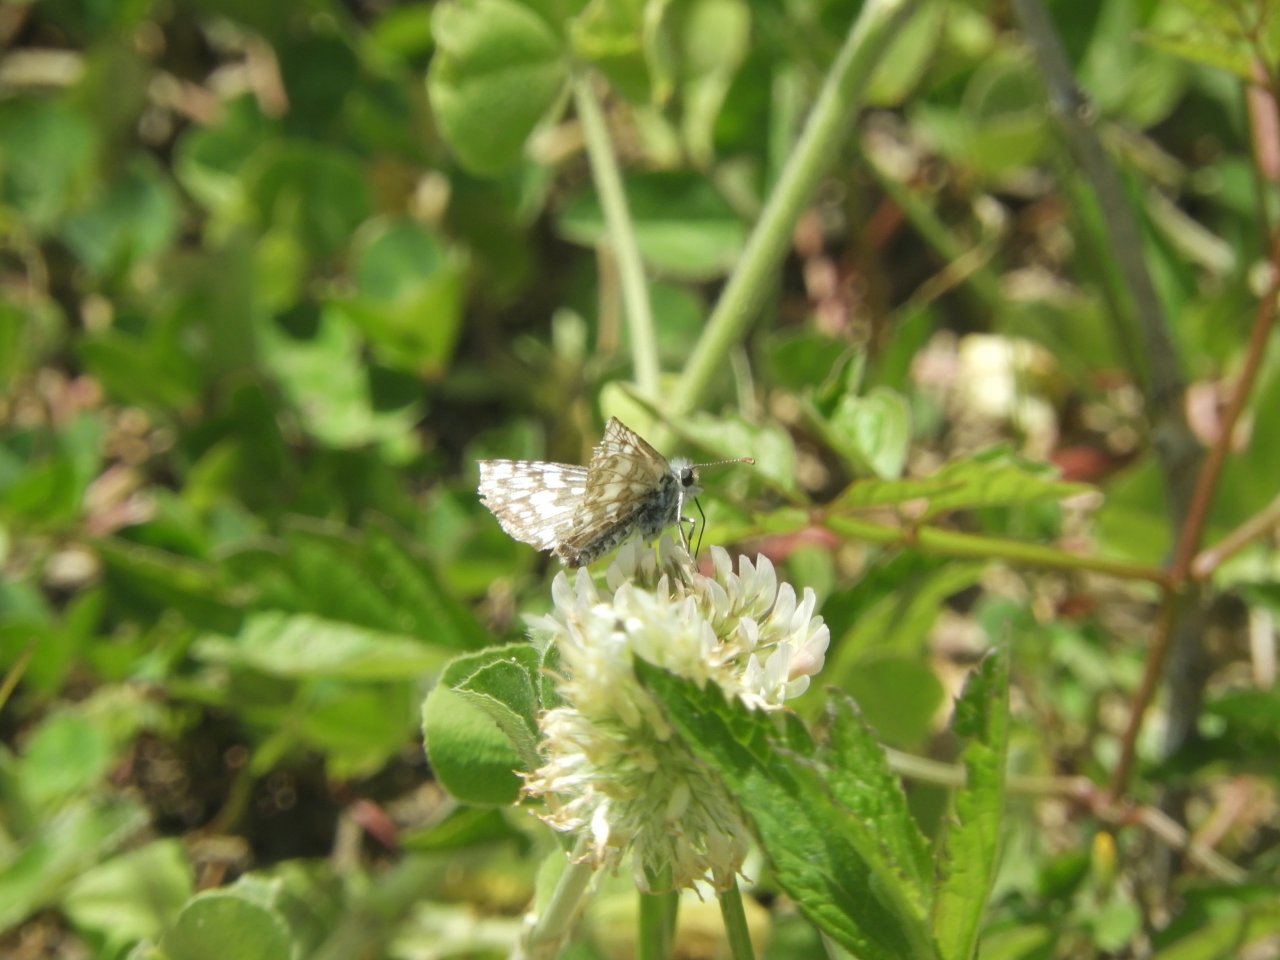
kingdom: Animalia
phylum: Arthropoda
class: Insecta
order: Lepidoptera
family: Hesperiidae
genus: Pyrgus
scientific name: Pyrgus communis
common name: Common Checkered-Skipper
